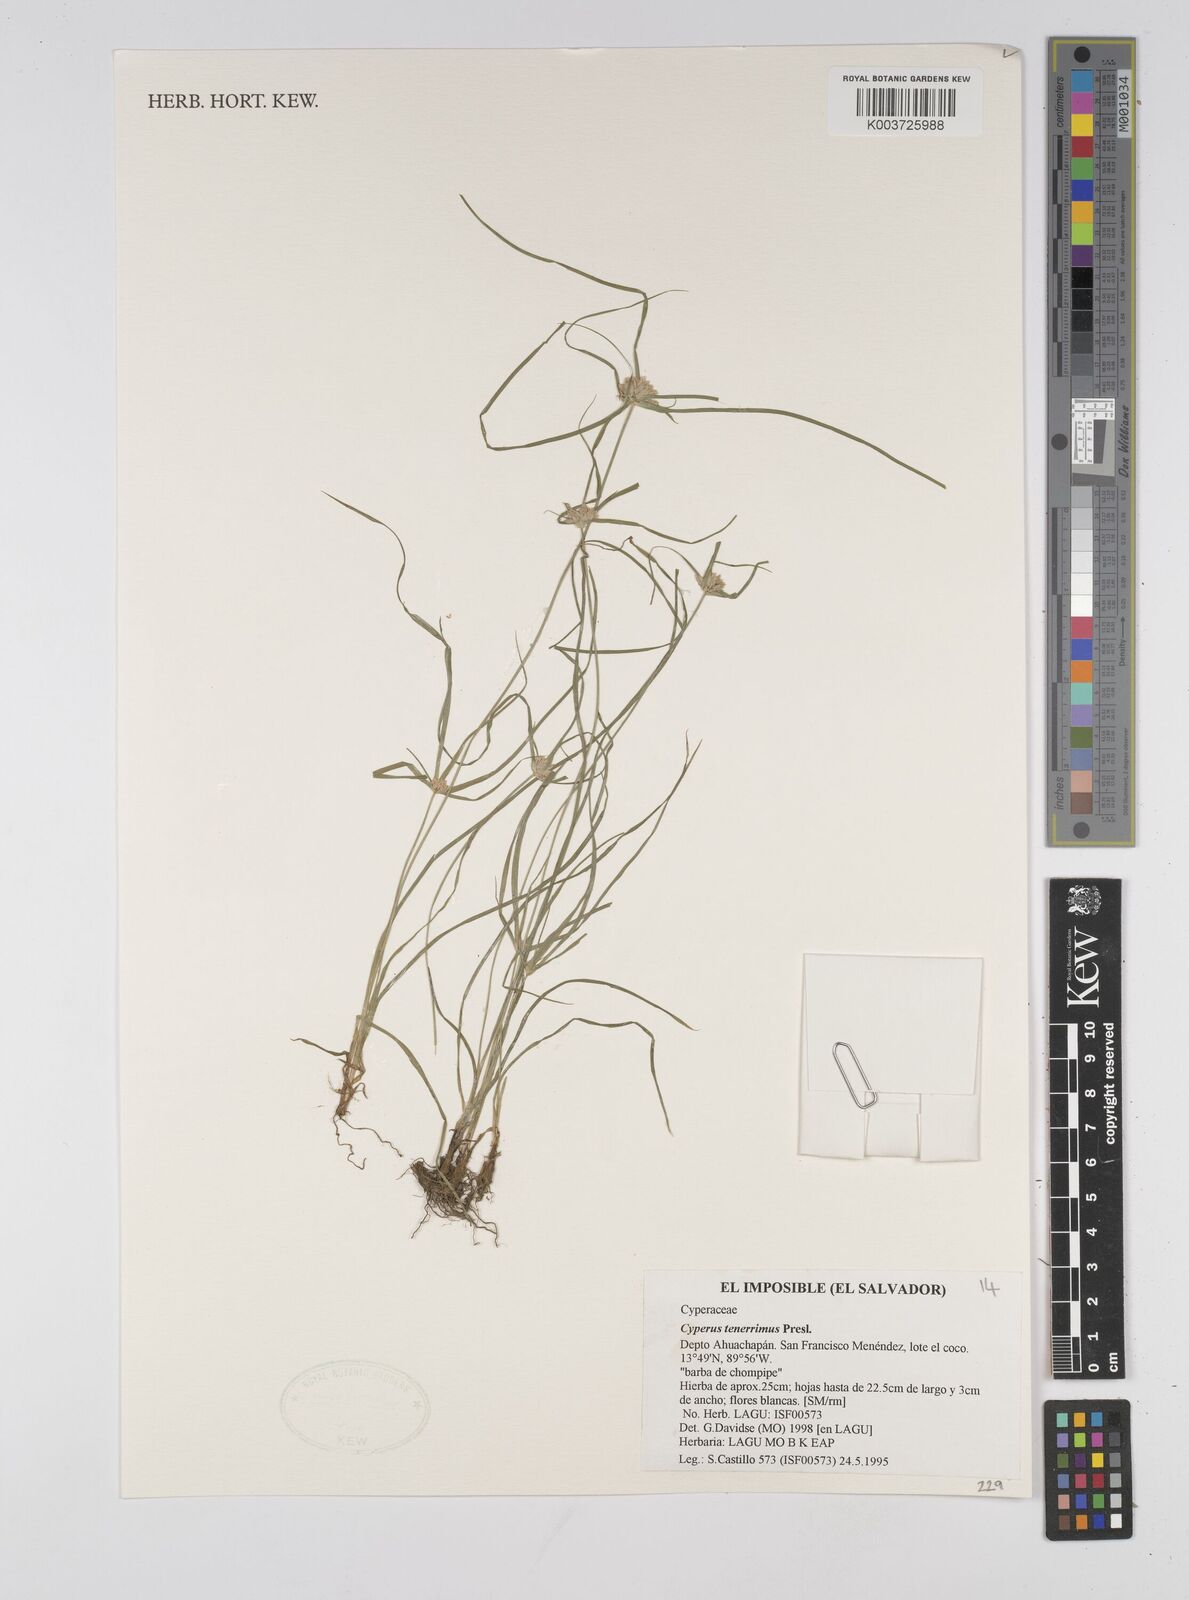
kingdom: Plantae
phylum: Tracheophyta
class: Liliopsida
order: Poales
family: Cyperaceae
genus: Cyperus
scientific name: Cyperus tenerrimus
